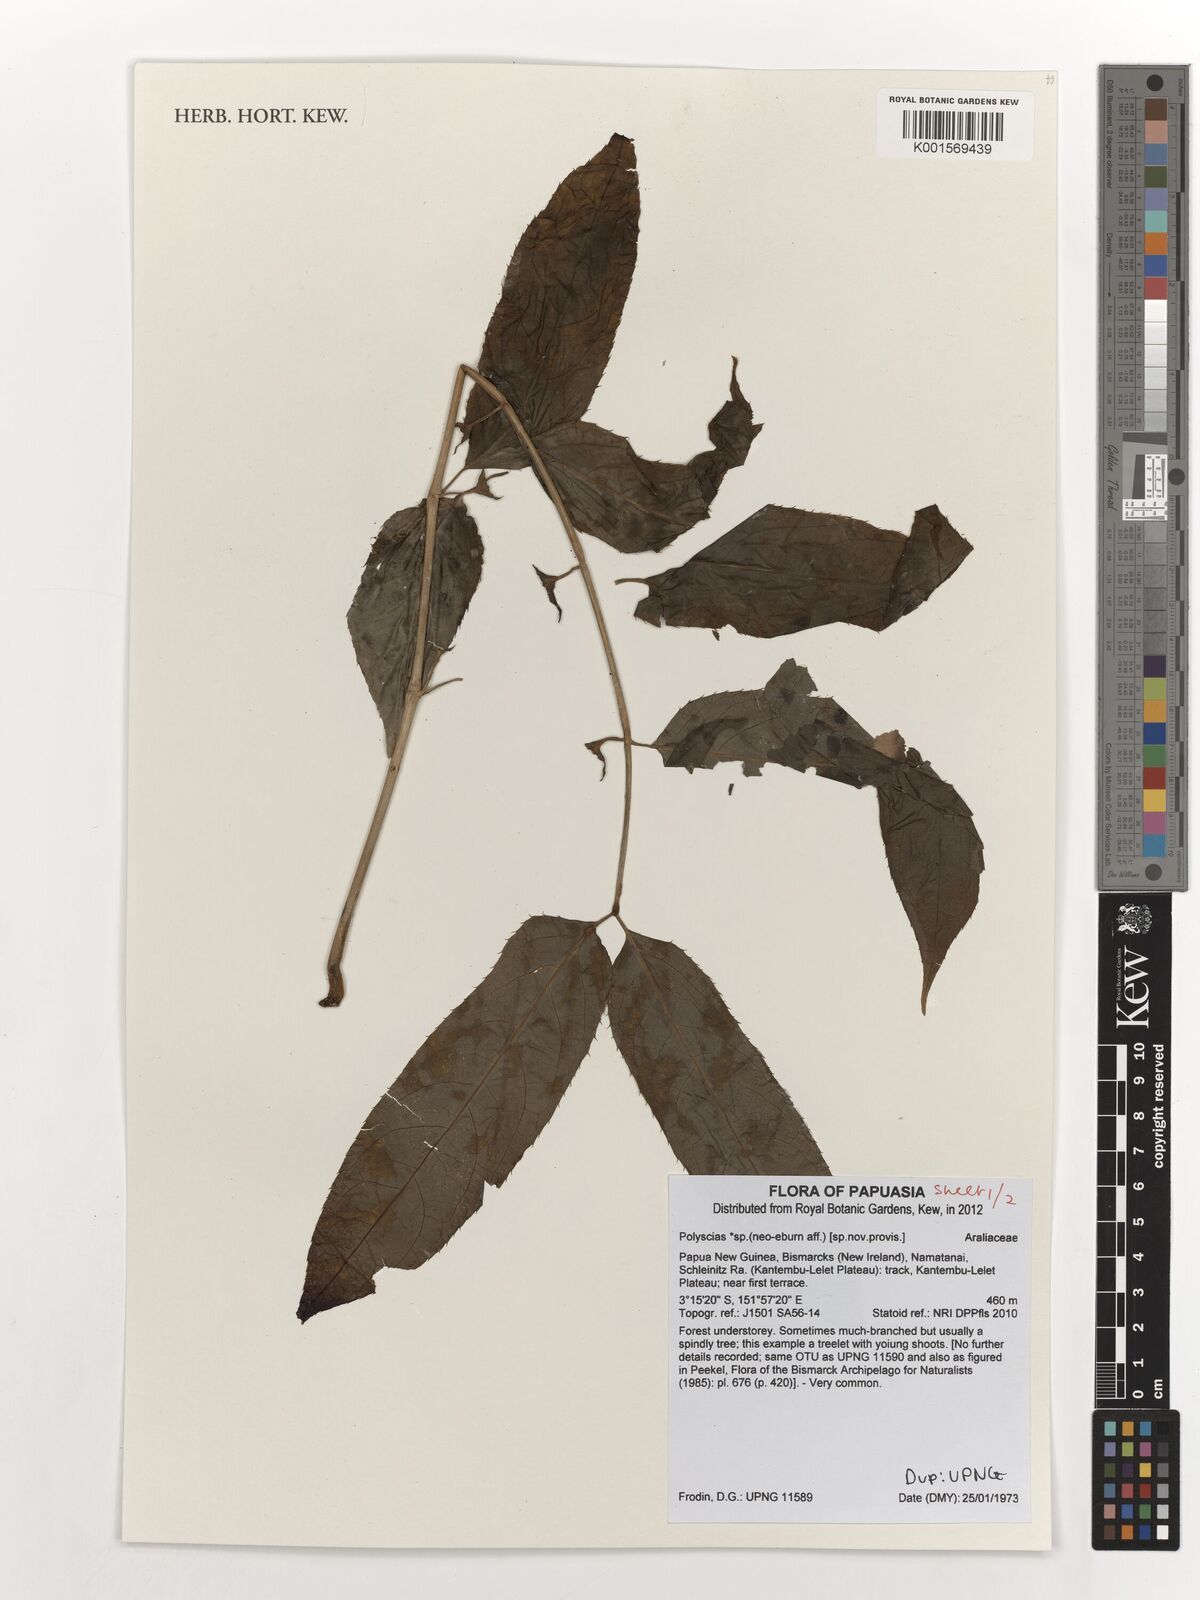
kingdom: Plantae
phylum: Tracheophyta
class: Magnoliopsida
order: Apiales
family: Araliaceae
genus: Polyscias
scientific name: Polyscias
